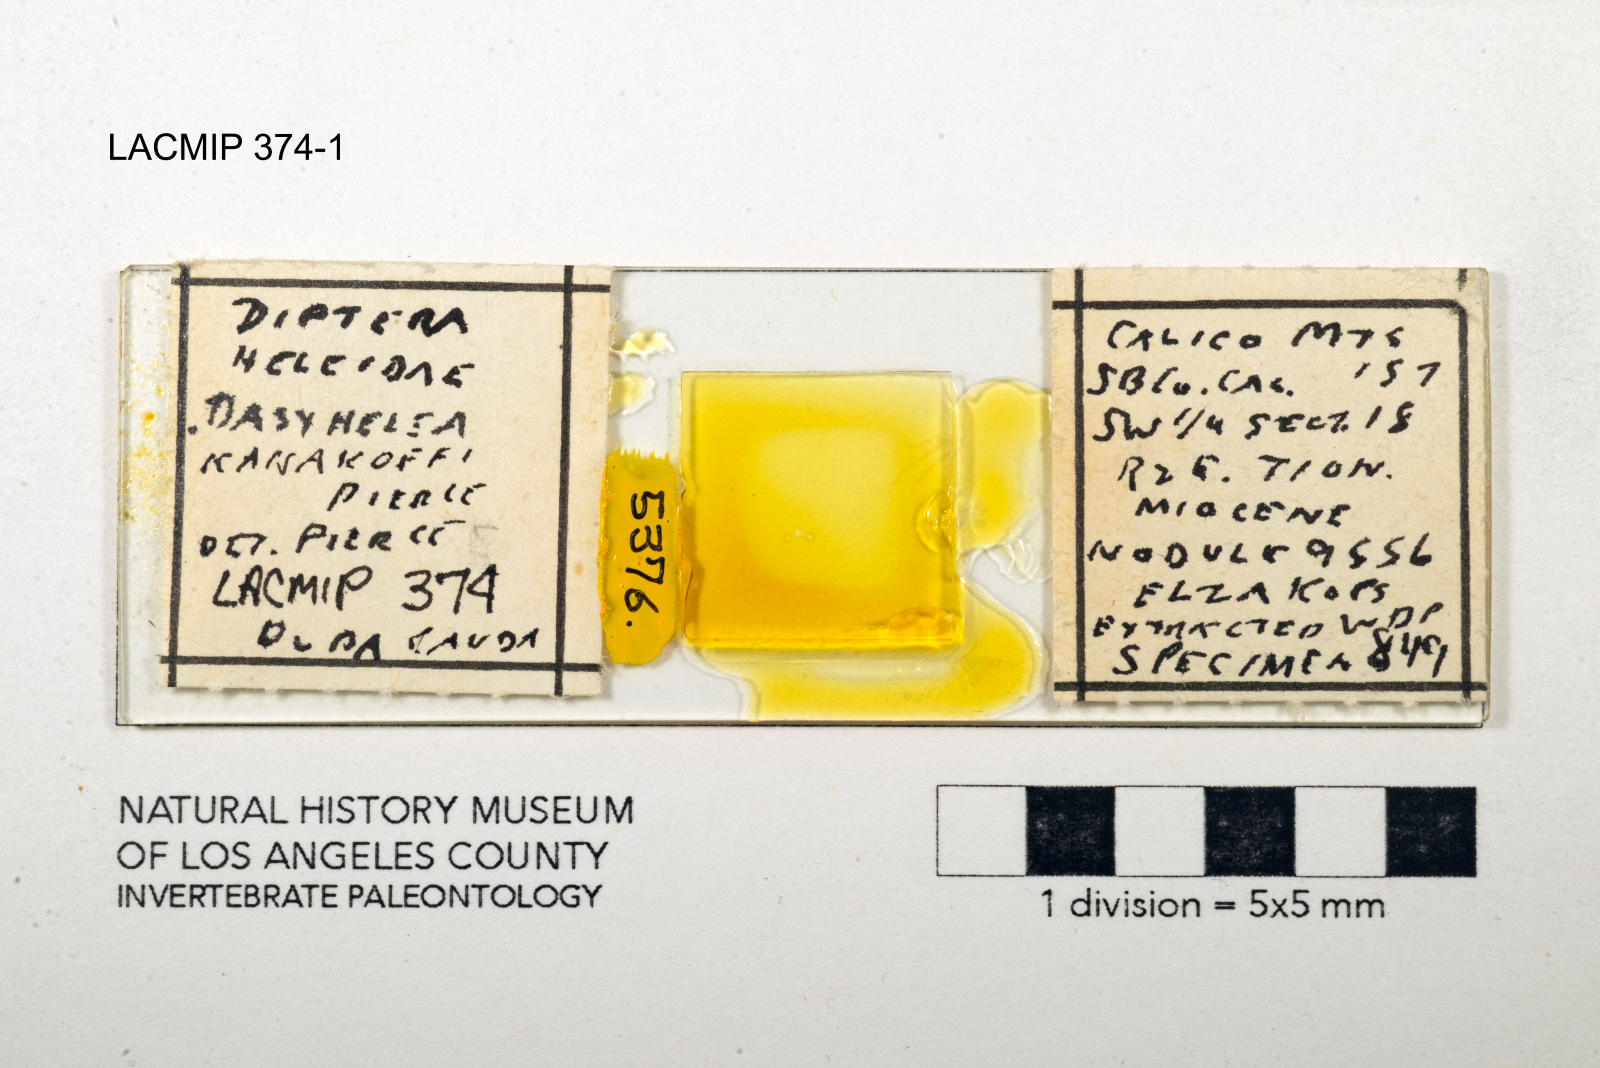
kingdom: Animalia
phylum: Arthropoda
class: Insecta
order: Diptera
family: Ceratopogonidae
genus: Dasyhelea
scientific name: Dasyhelea kanakoffi
